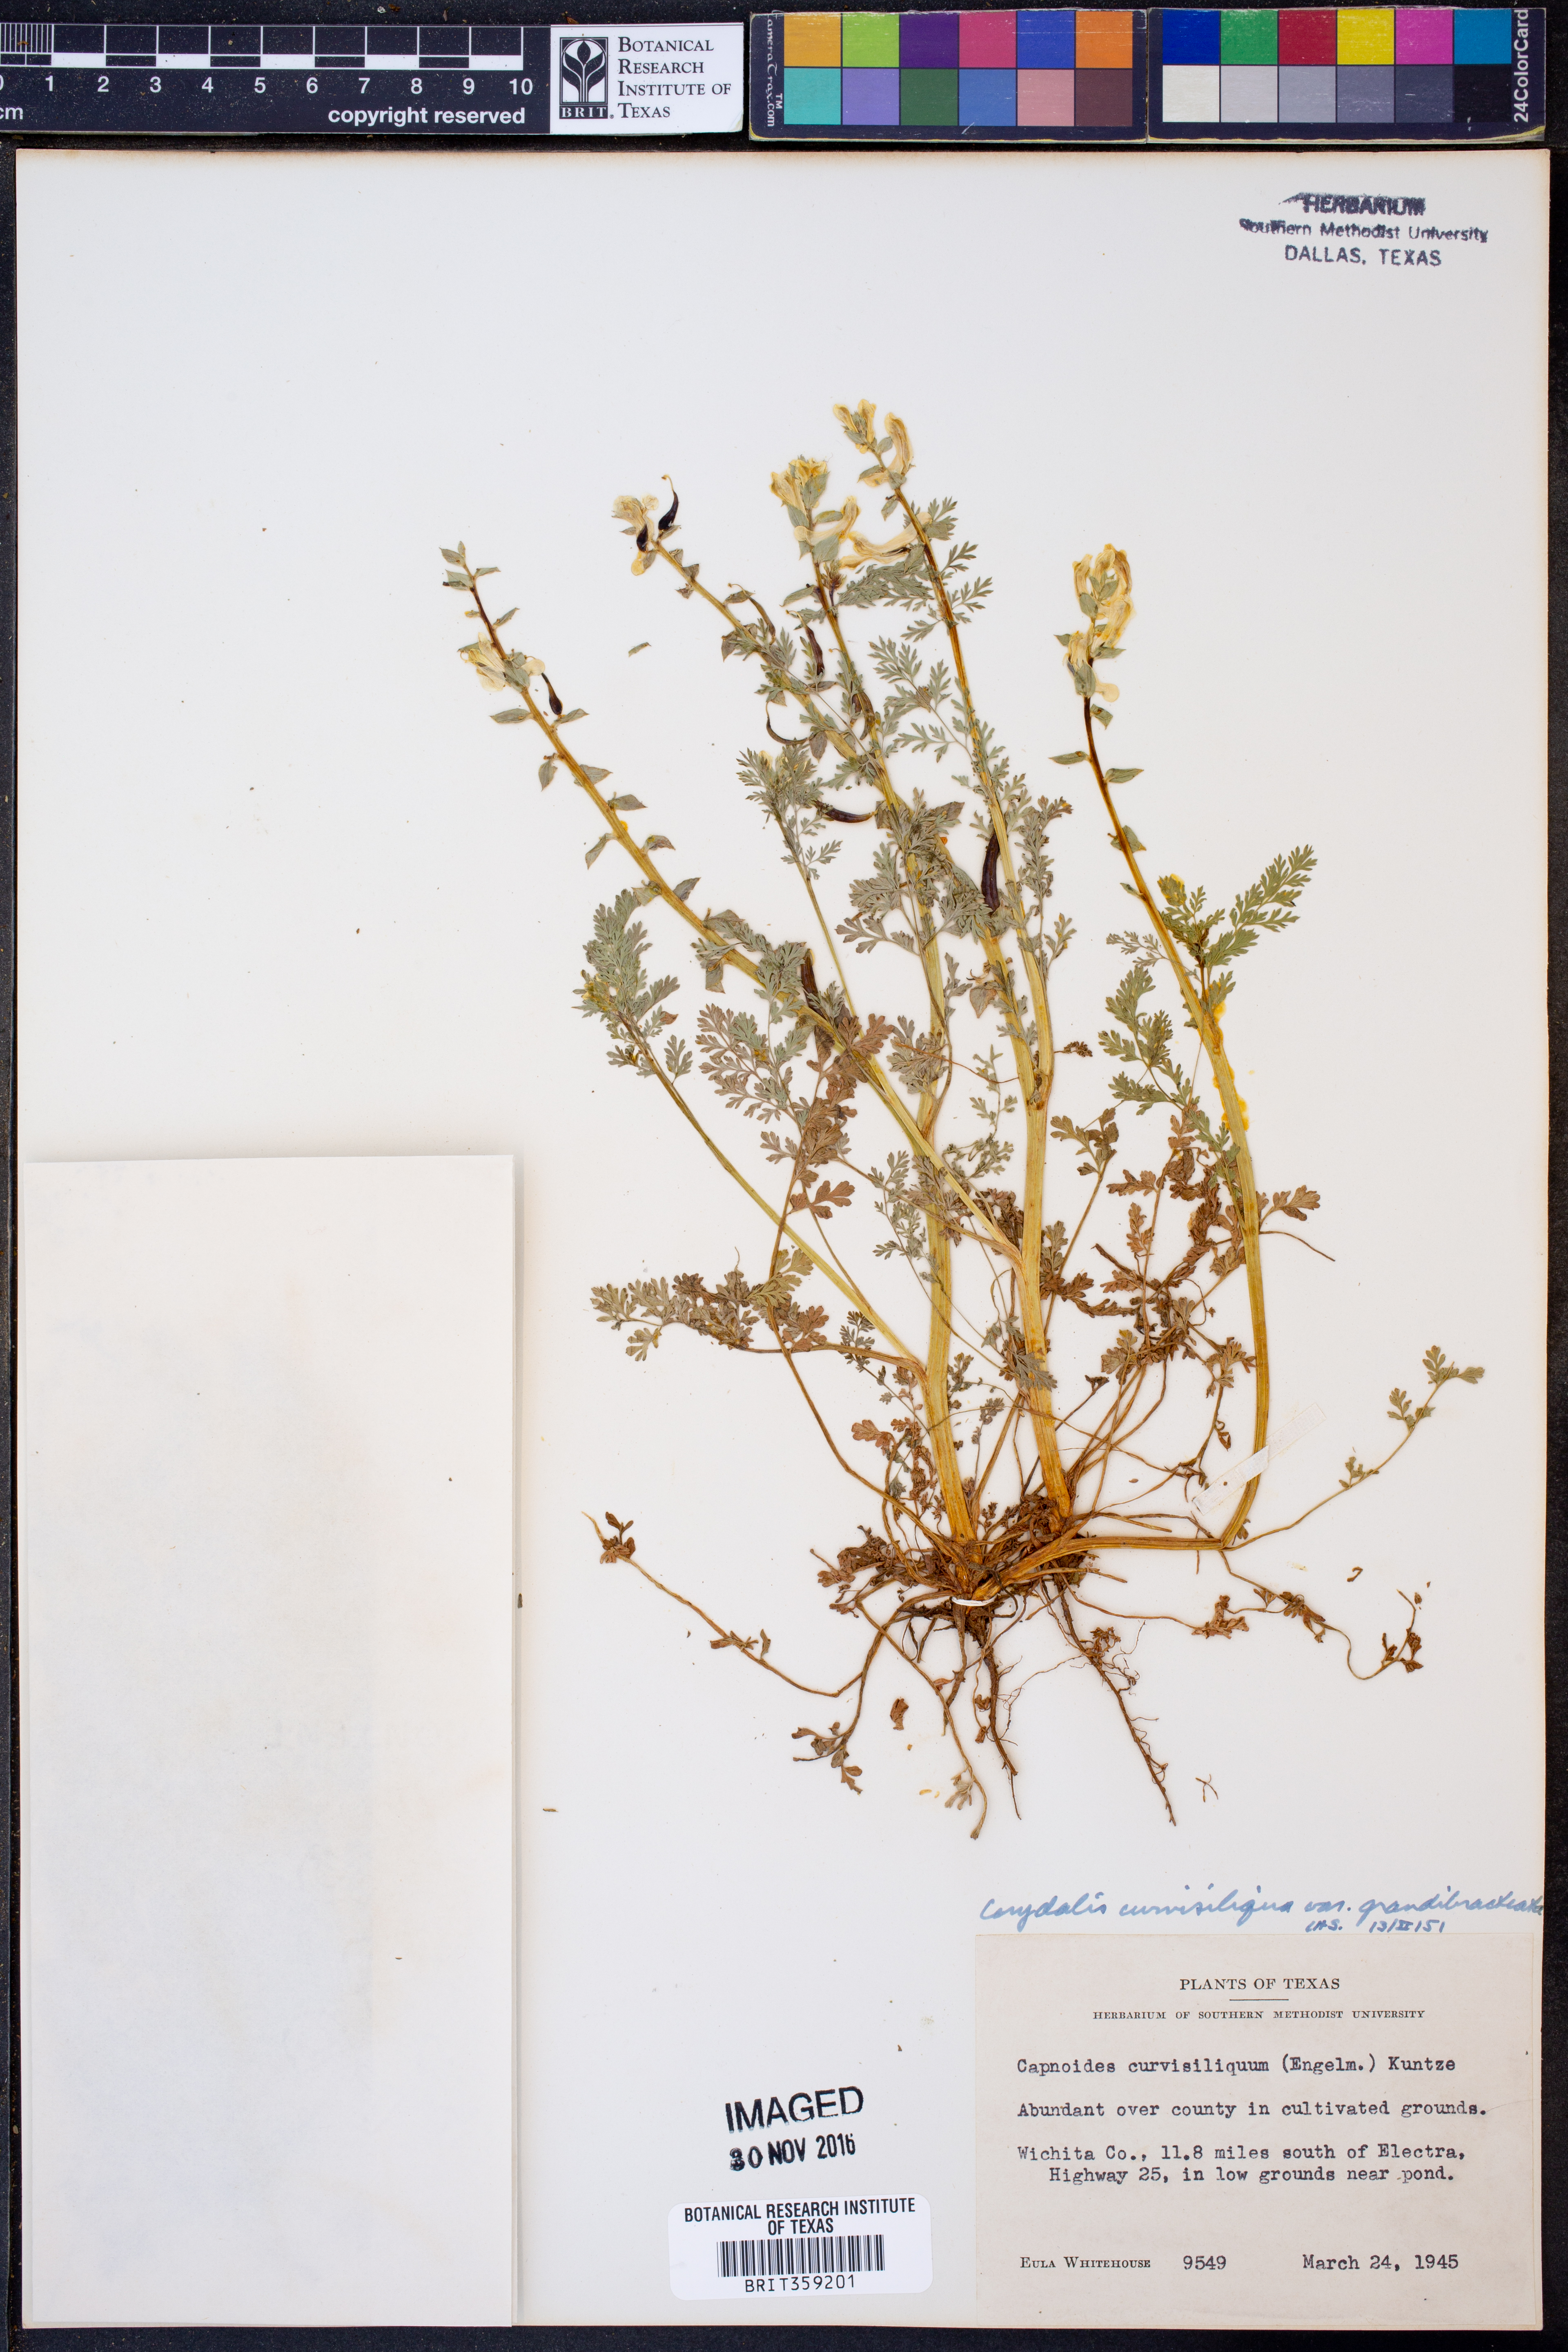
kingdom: Plantae
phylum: Tracheophyta
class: Magnoliopsida
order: Ranunculales
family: Papaveraceae
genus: Corydalis
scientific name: Corydalis curvisiliqua
